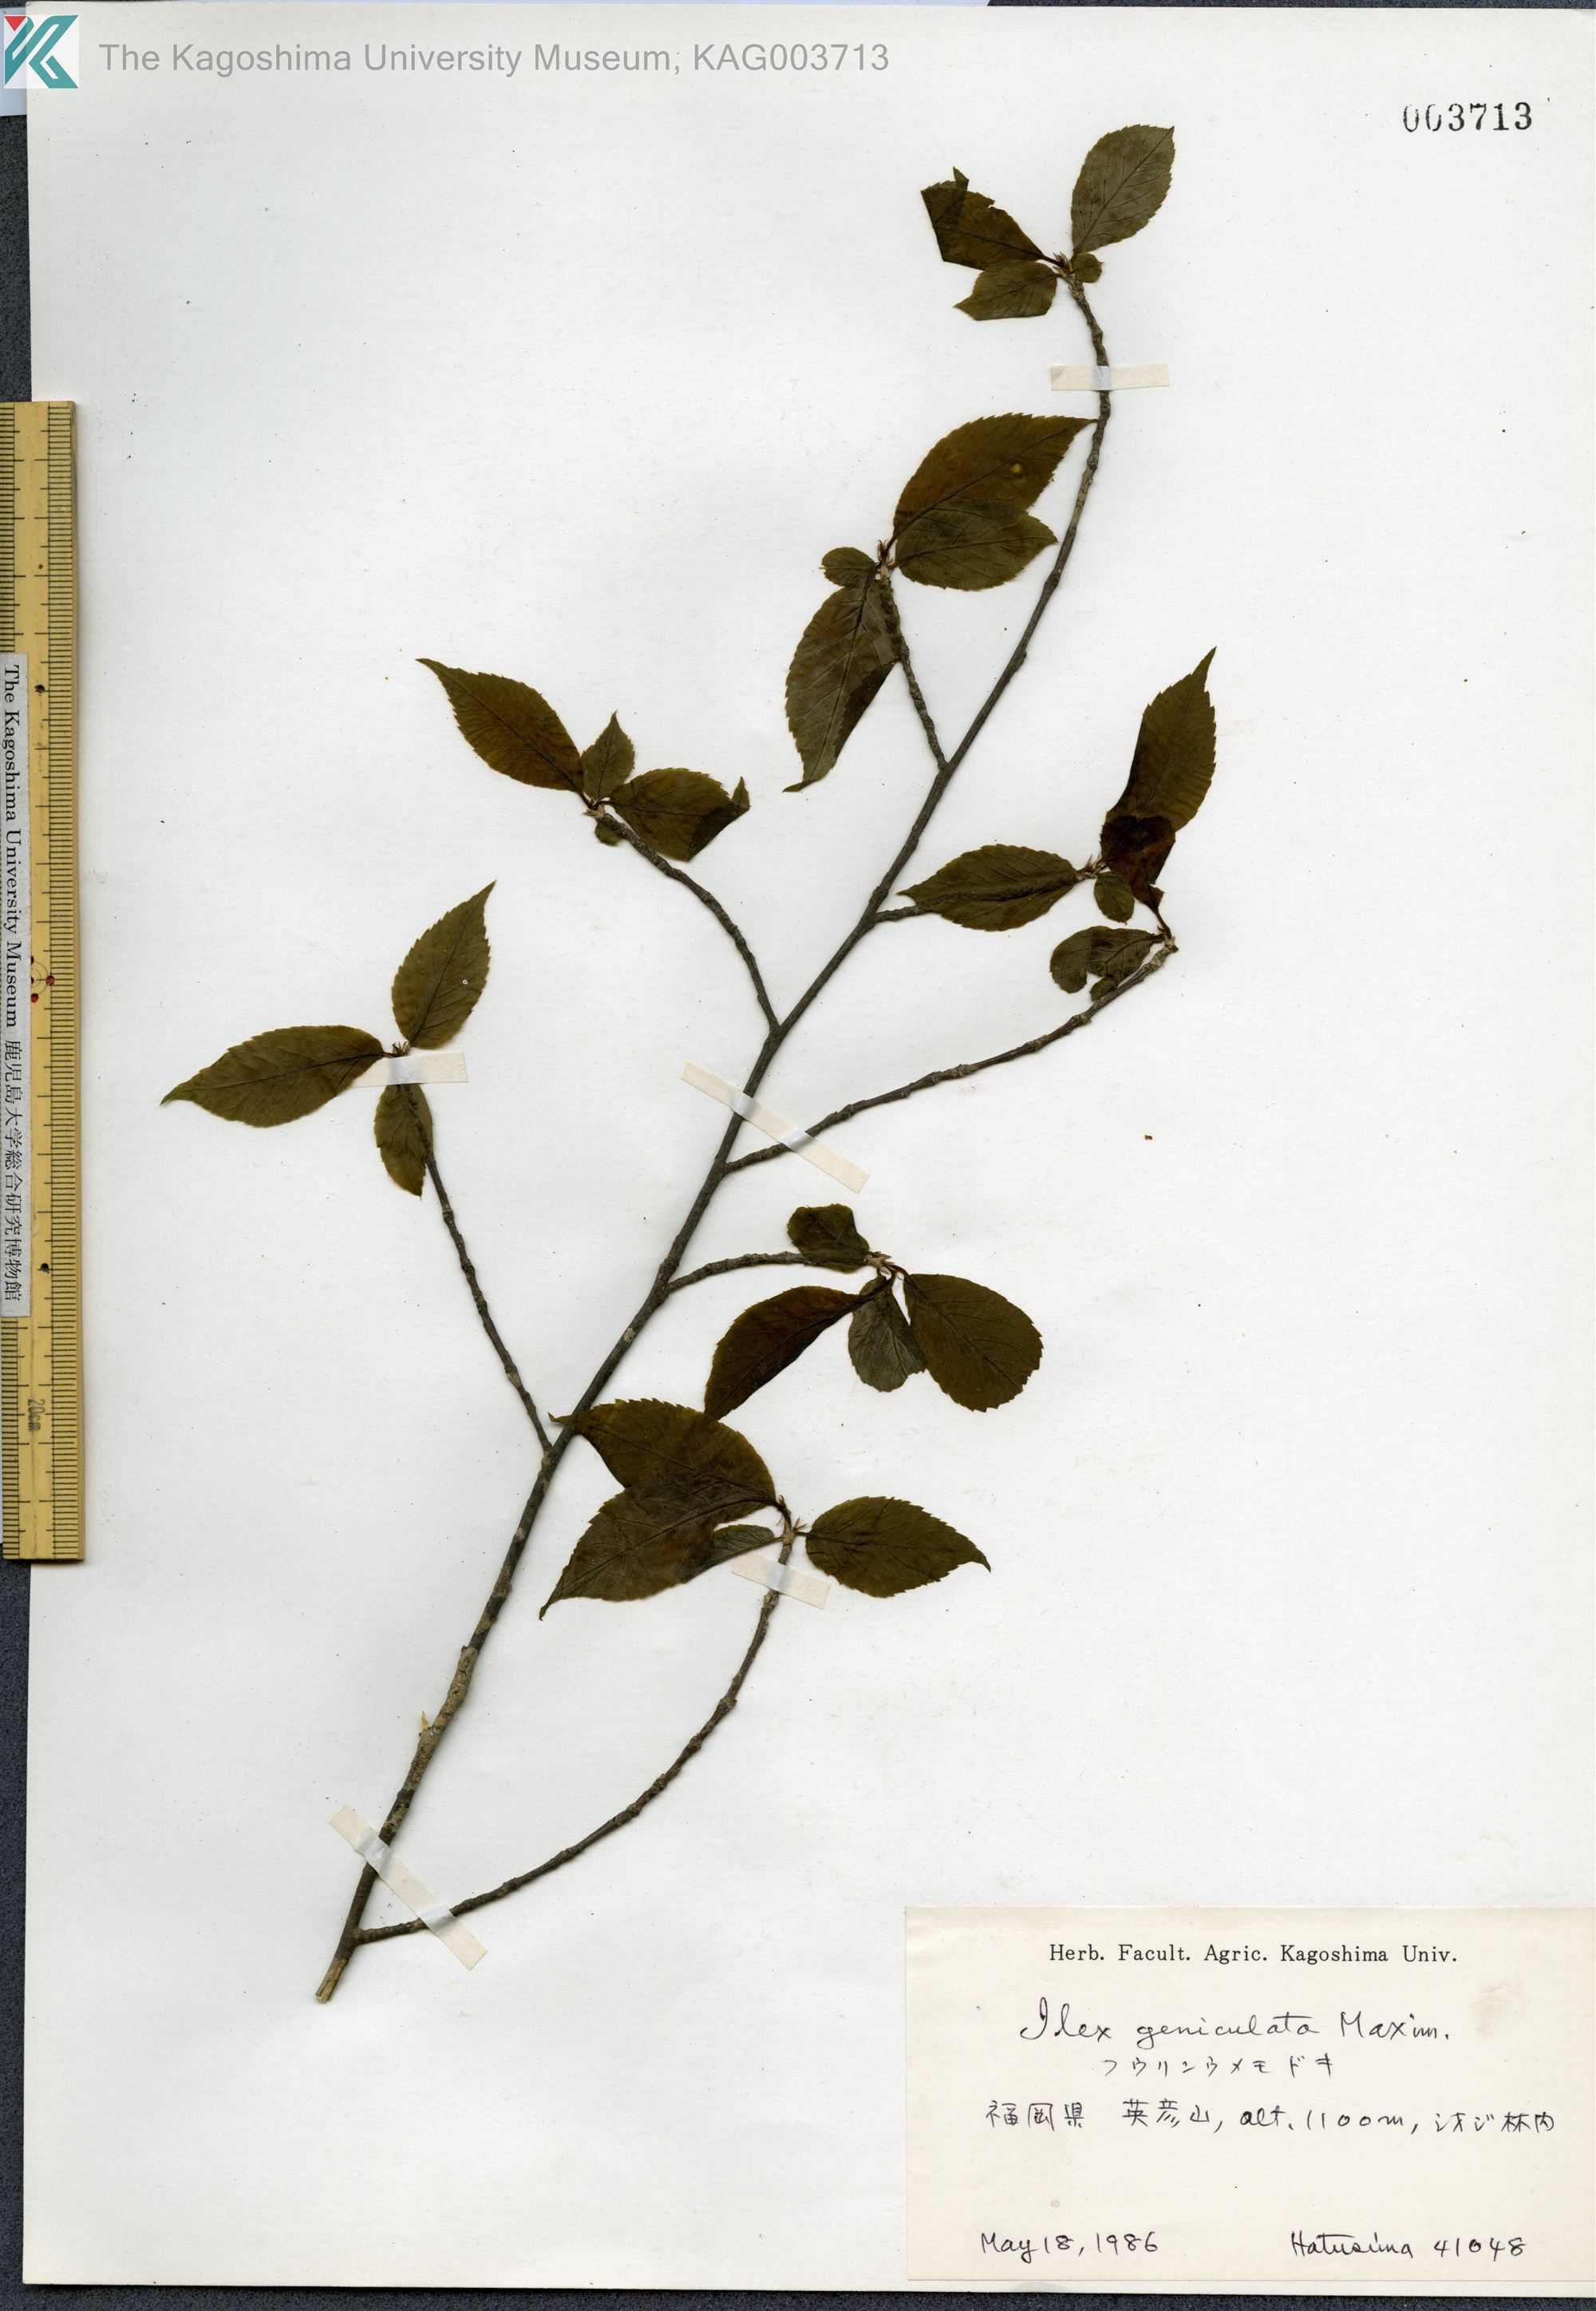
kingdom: Plantae
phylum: Tracheophyta
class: Magnoliopsida
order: Aquifoliales
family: Aquifoliaceae
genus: Ilex
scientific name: Ilex geniculata
